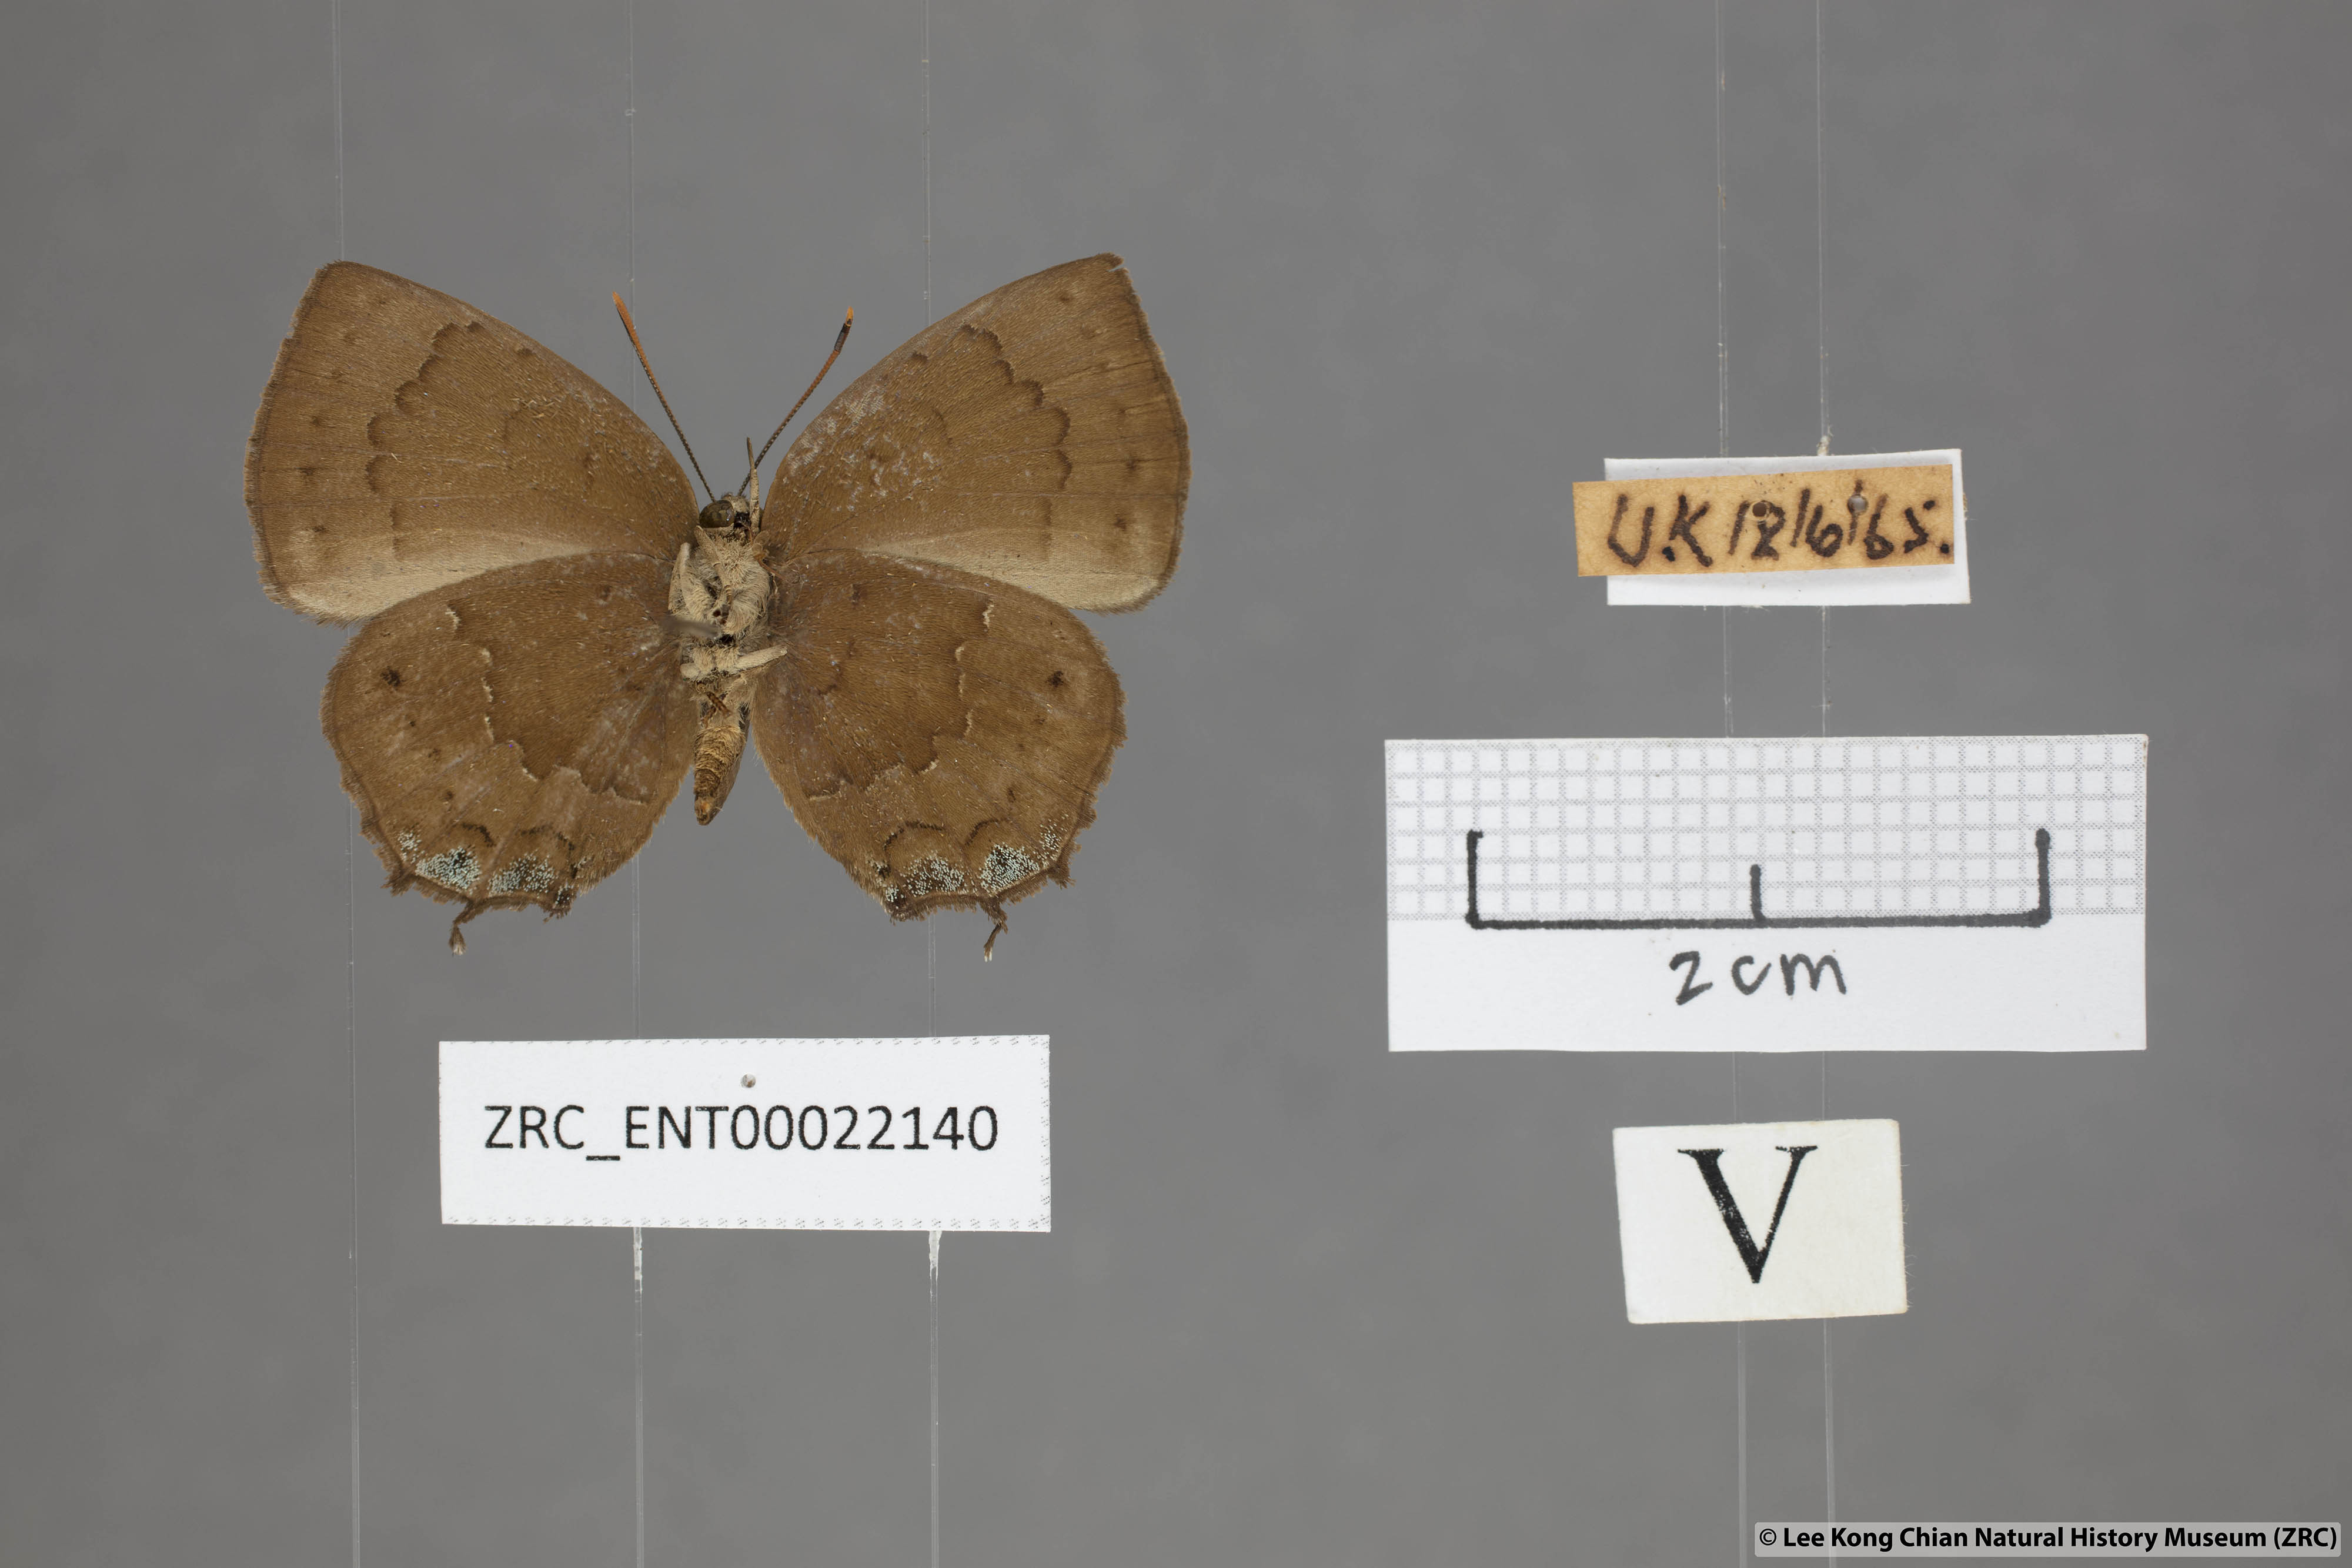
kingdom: Animalia
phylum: Arthropoda
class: Insecta
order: Lepidoptera
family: Lycaenidae
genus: Surendra
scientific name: Surendra vivarna
